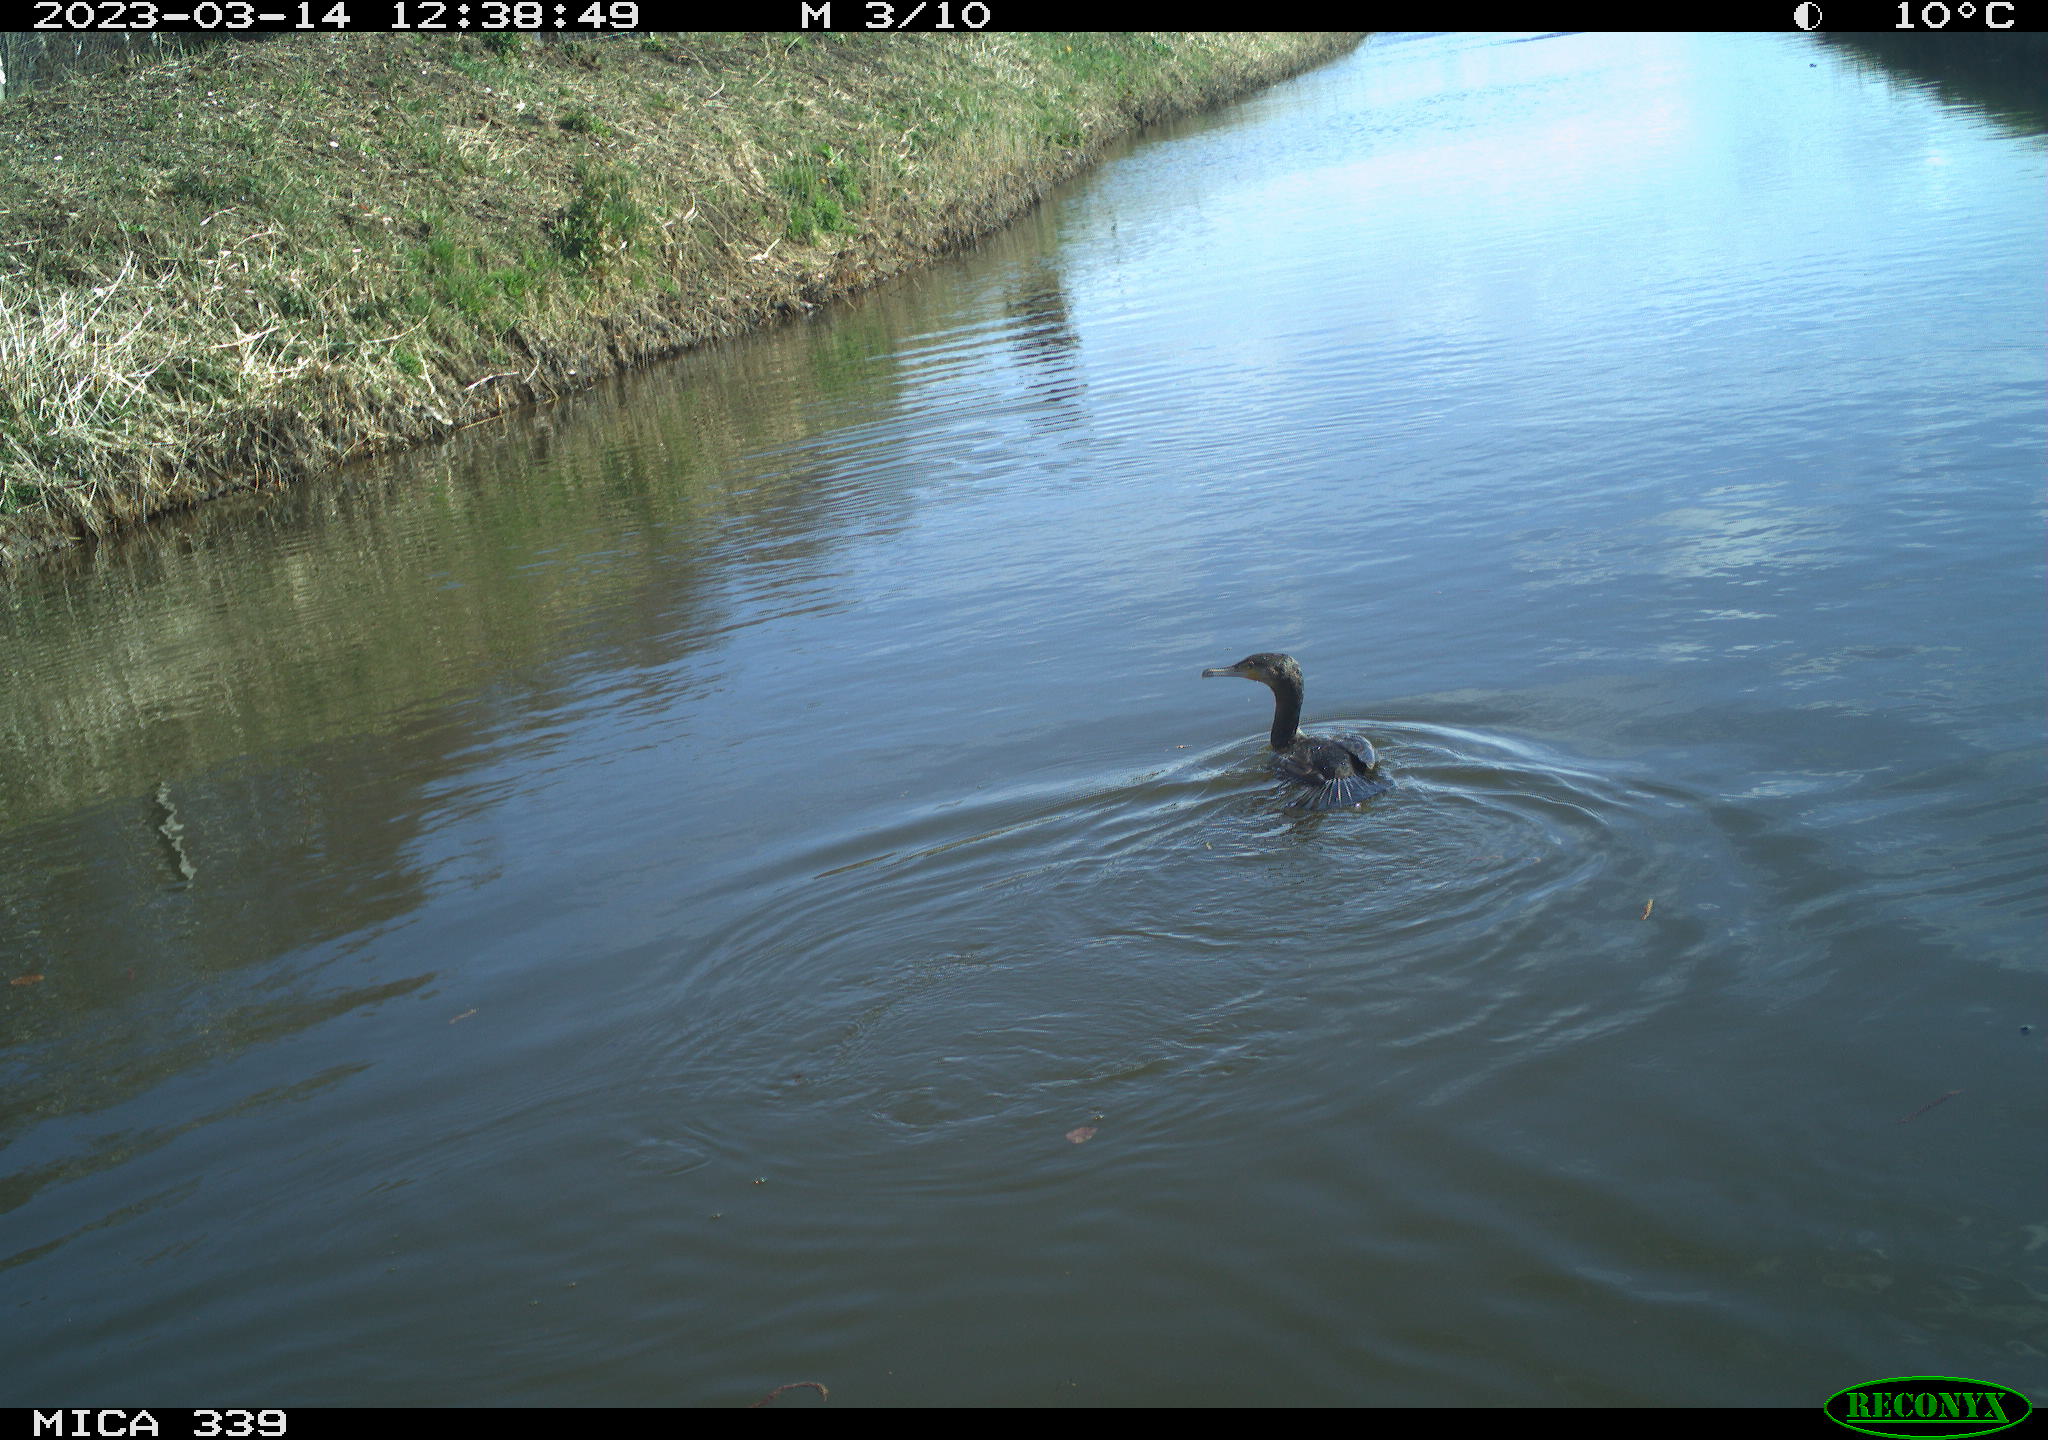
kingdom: Animalia
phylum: Chordata
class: Aves
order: Anseriformes
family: Anatidae
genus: Anas
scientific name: Anas
